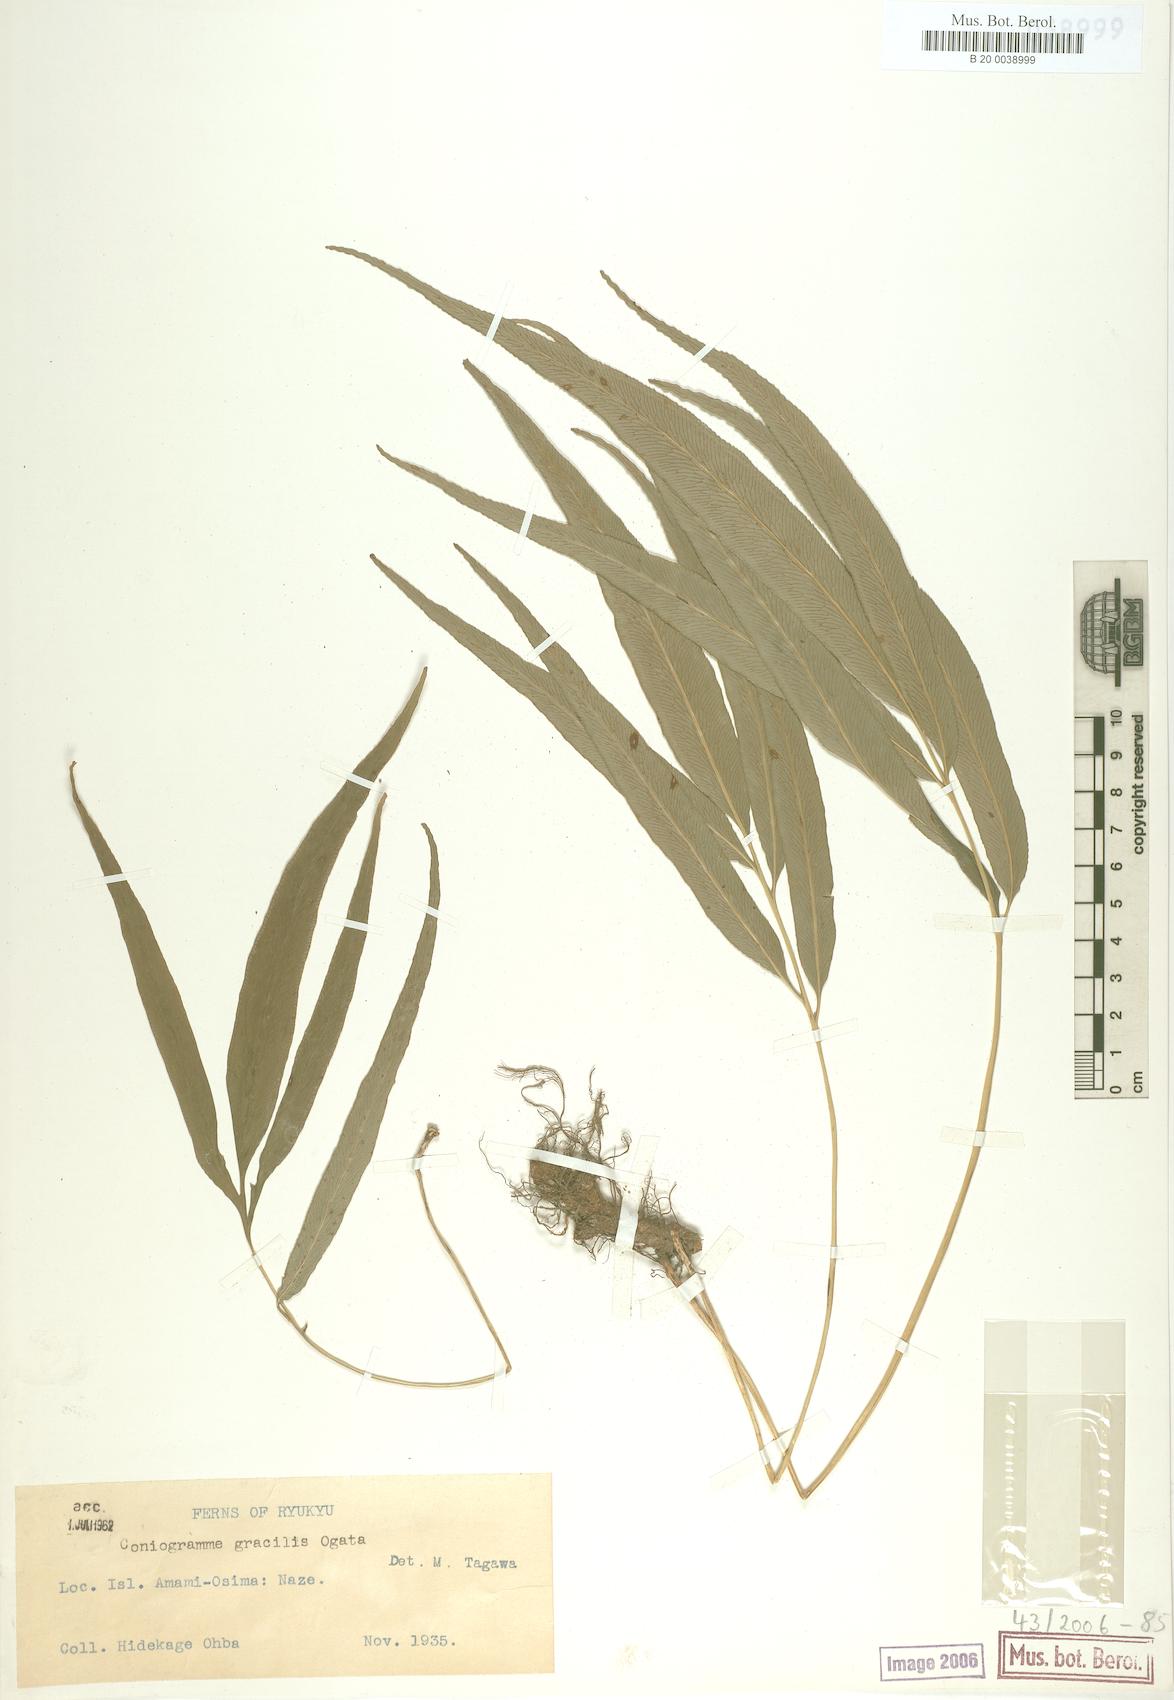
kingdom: Plantae
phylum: Tracheophyta
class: Polypodiopsida
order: Polypodiales
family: Pteridaceae
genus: Coniogramme
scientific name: Coniogramme gracilis
